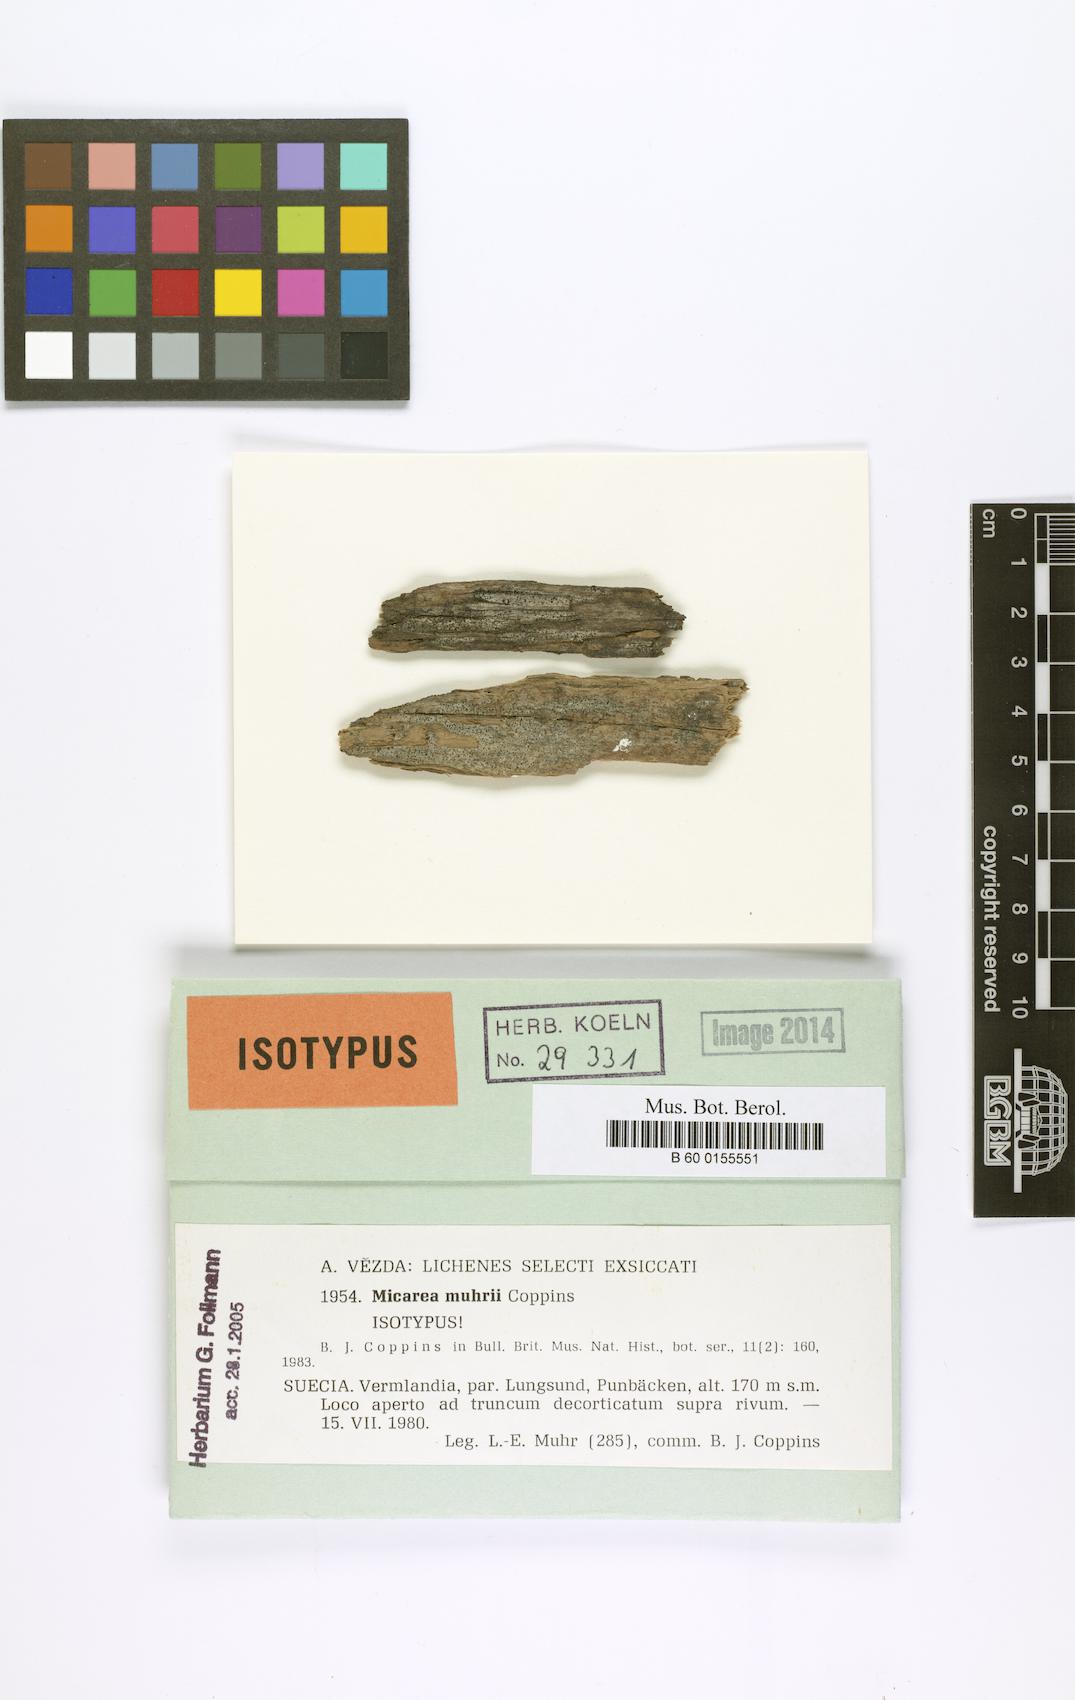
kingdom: Fungi
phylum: Ascomycota
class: Lecanoromycetes
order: Lecanorales
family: Byssolomataceae
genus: Micarea
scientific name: Micarea vulpinaris
